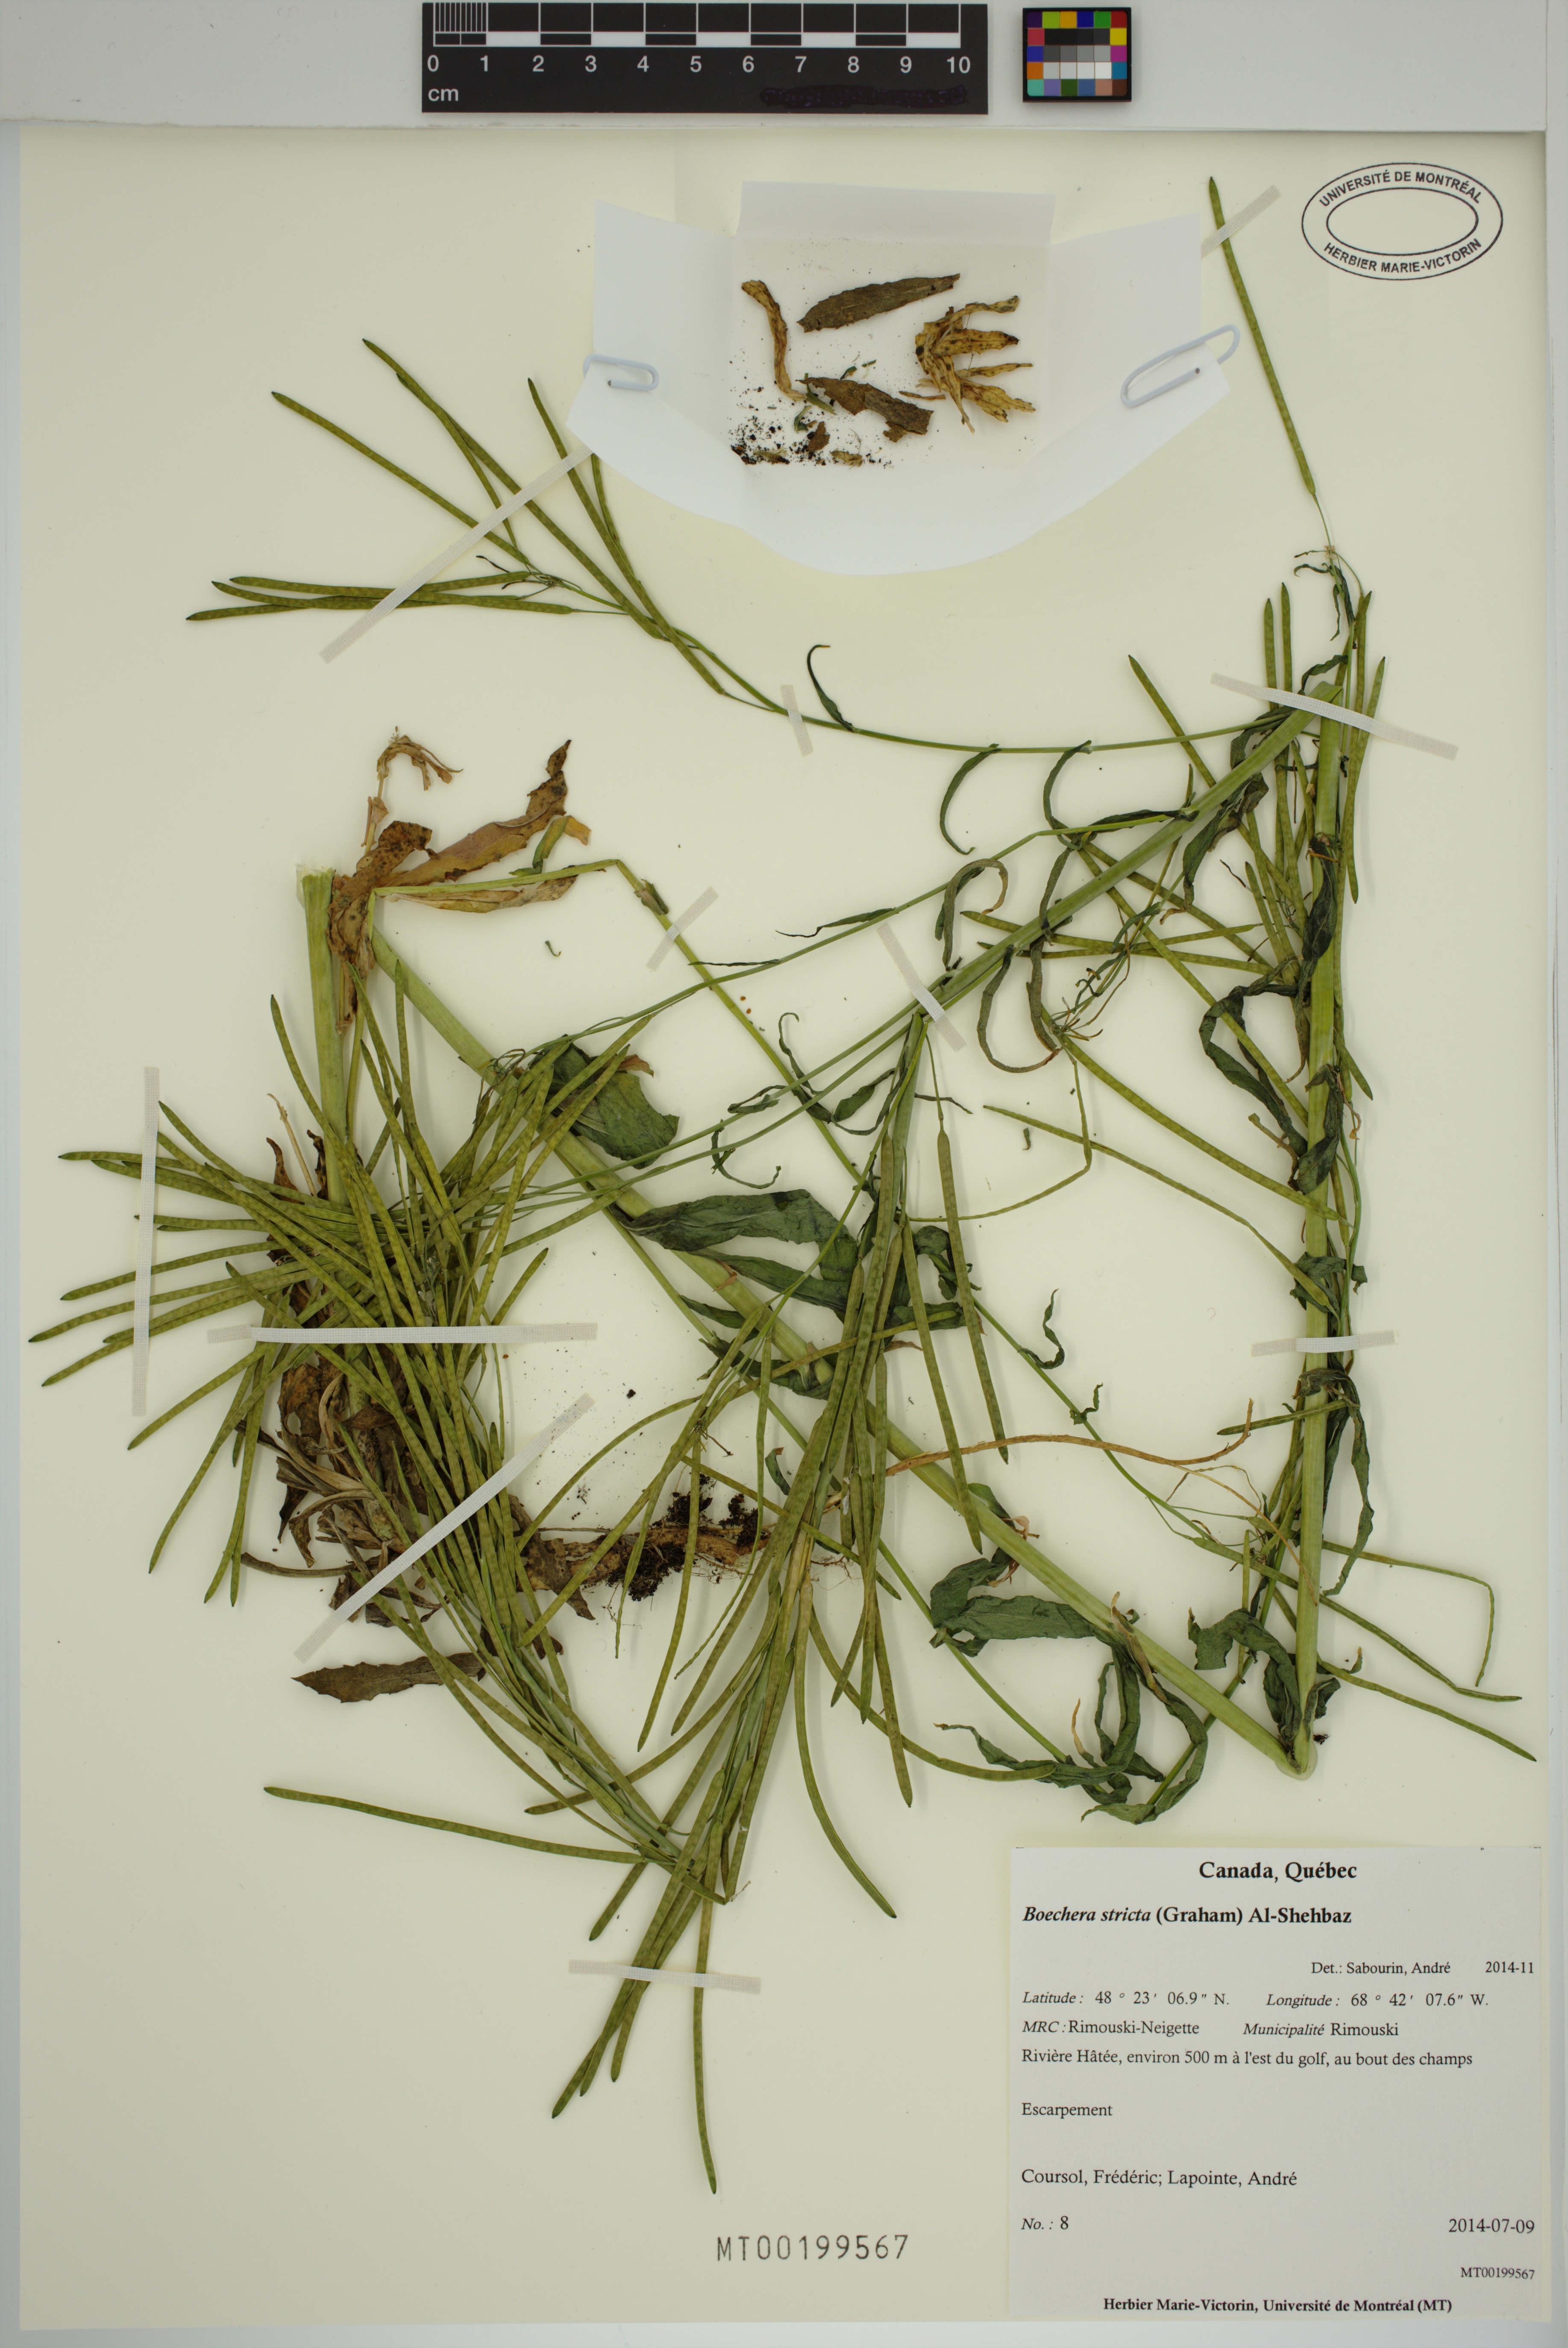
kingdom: Plantae
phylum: Tracheophyta
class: Magnoliopsida
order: Brassicales
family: Brassicaceae
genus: Boechera
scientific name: Boechera stricta
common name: Canadian rockcress
